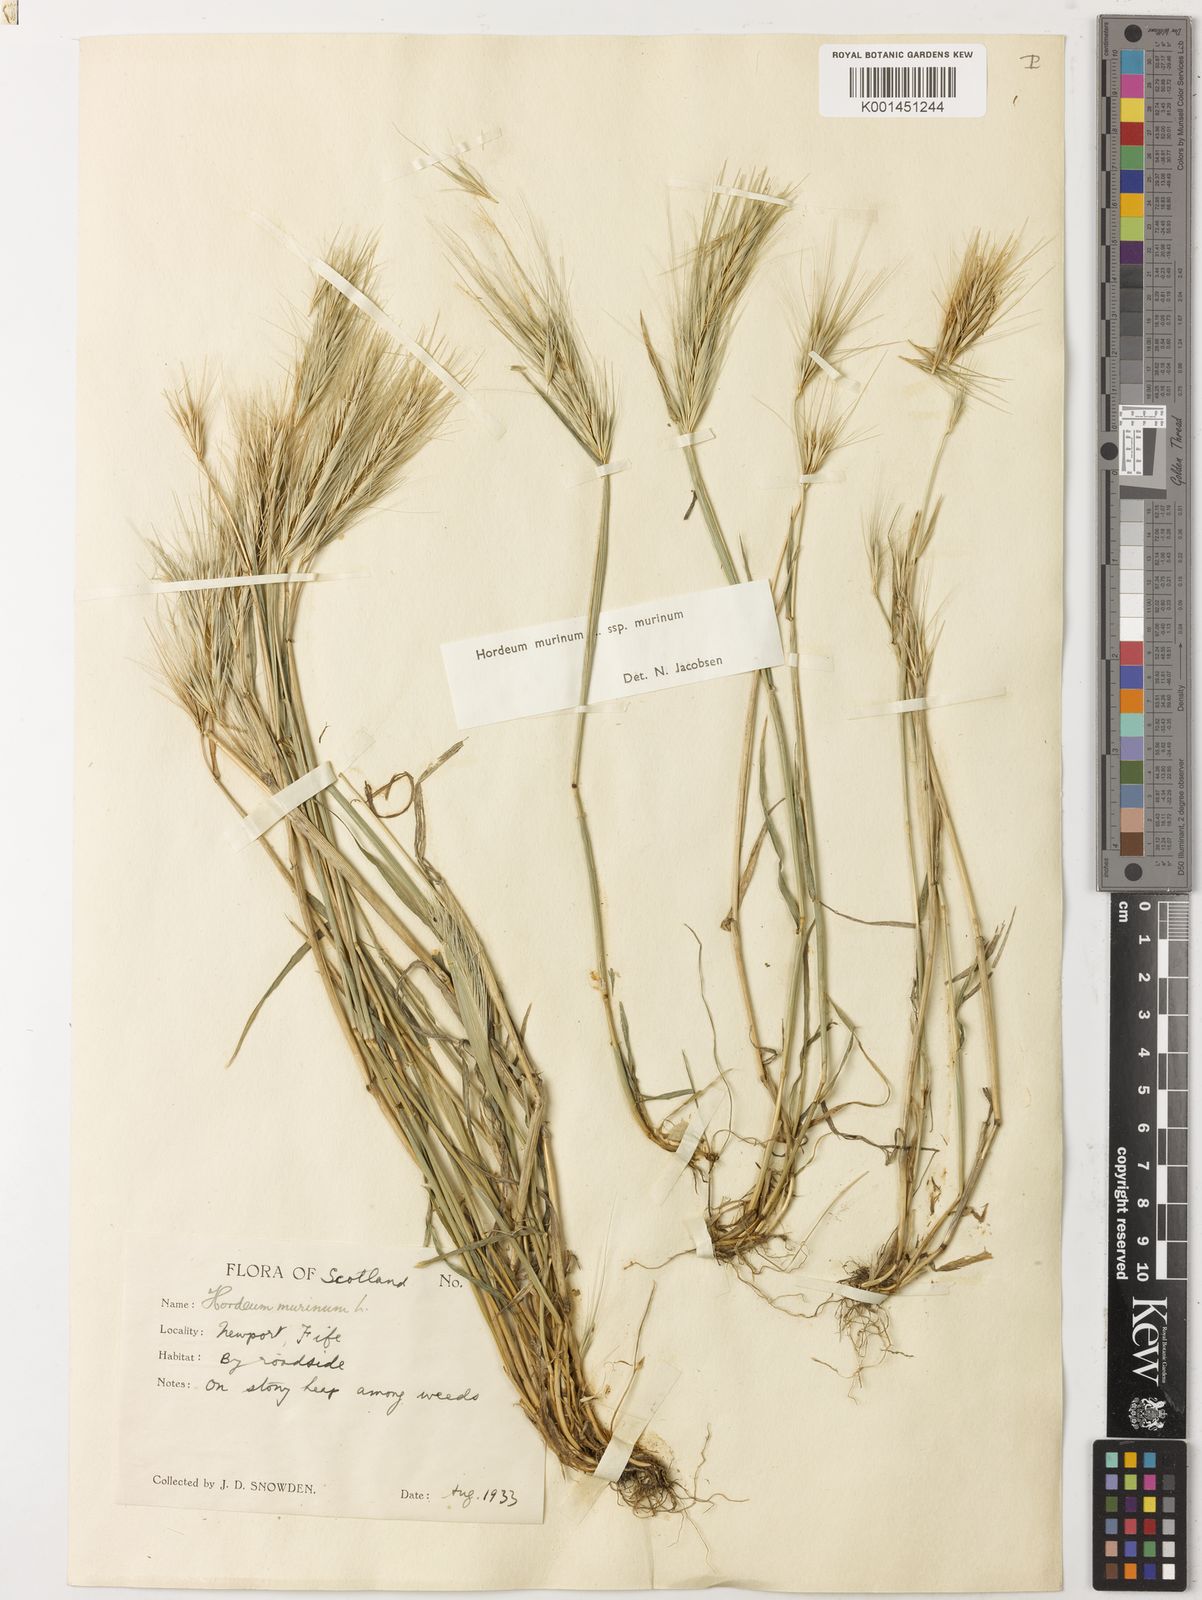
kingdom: Plantae
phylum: Tracheophyta
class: Liliopsida
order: Poales
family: Poaceae
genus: Hordeum
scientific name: Hordeum murinum
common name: Wall barley
